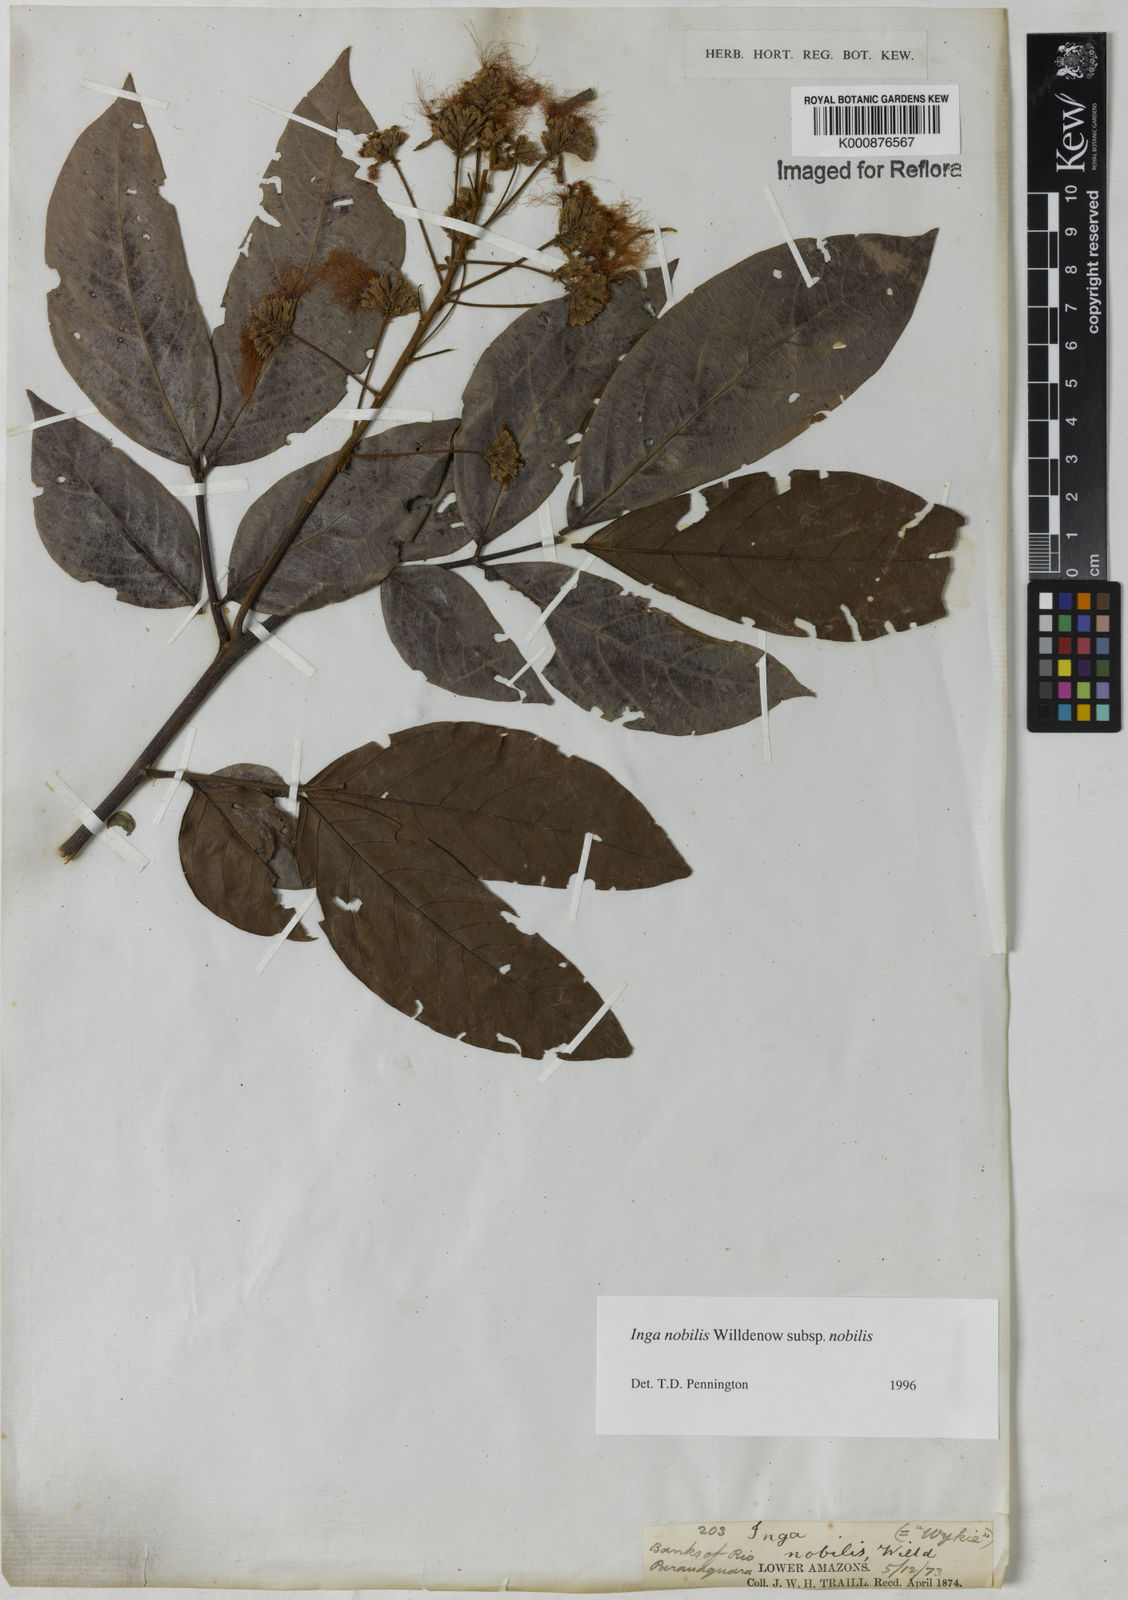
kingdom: Plantae
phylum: Tracheophyta
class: Magnoliopsida
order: Fabales
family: Fabaceae
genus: Inga
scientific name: Inga nobilis
